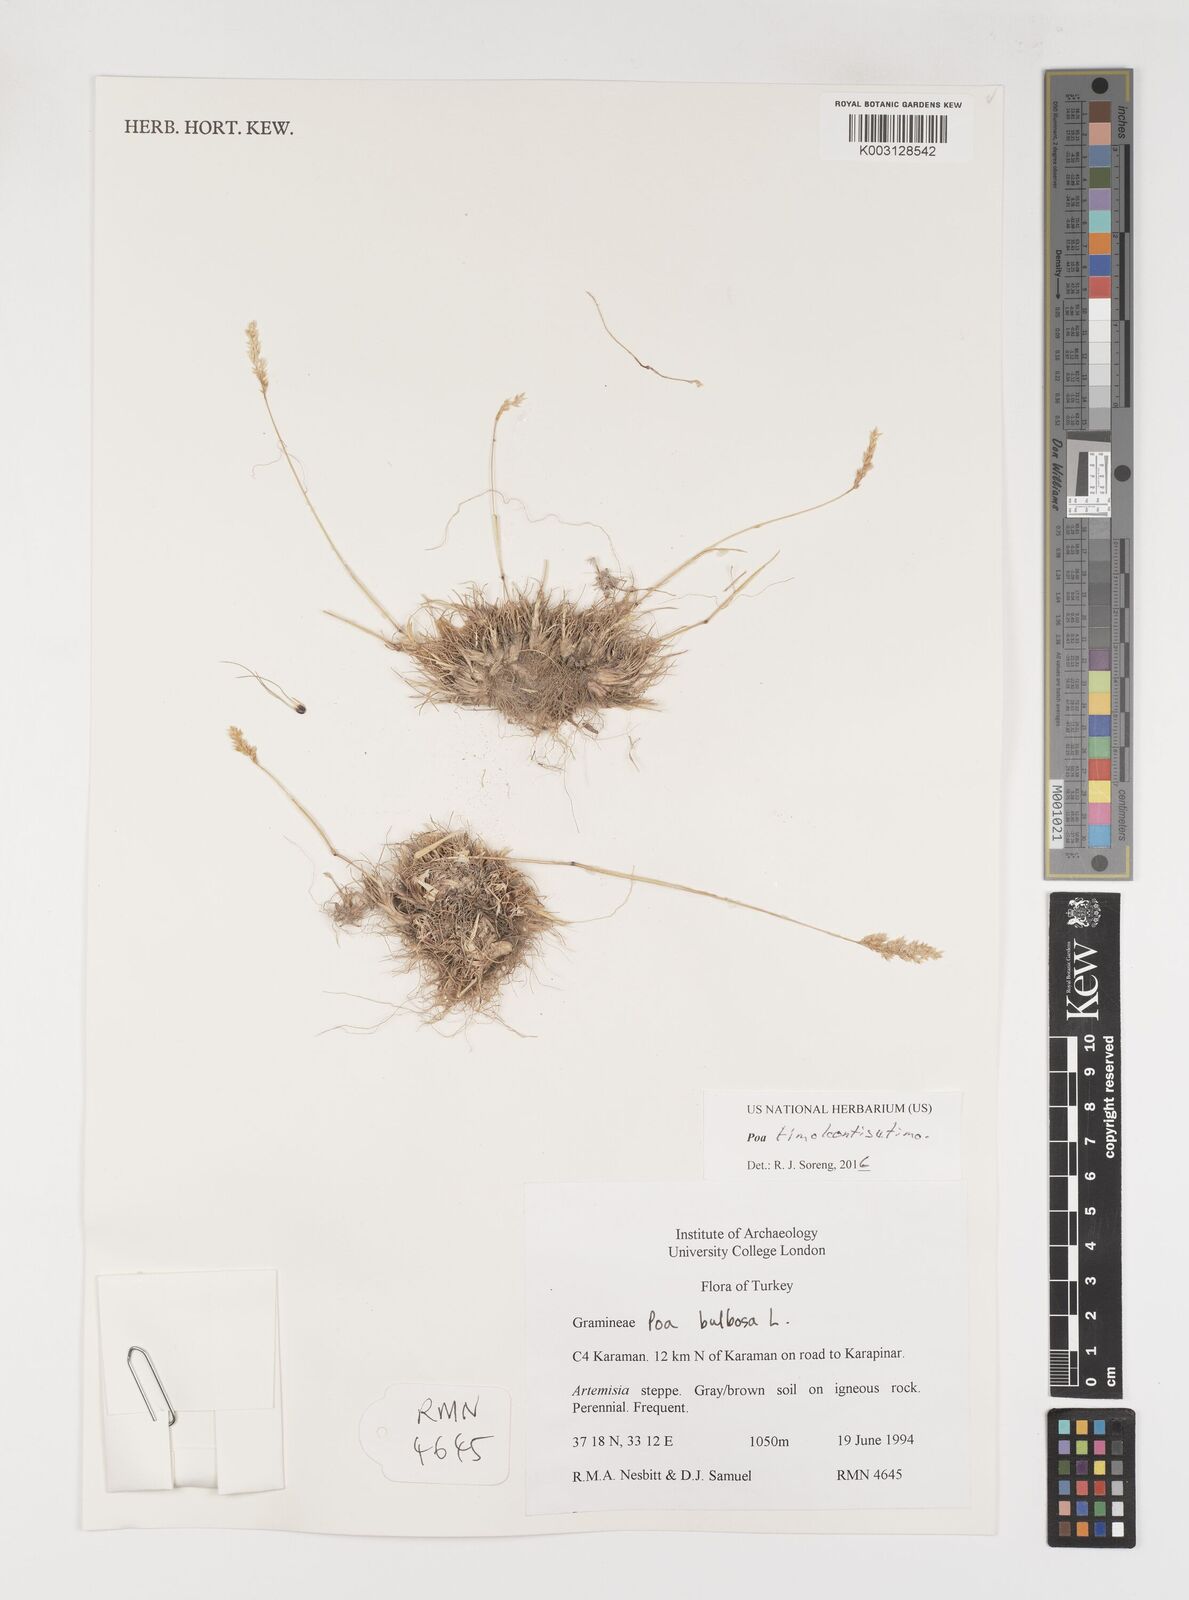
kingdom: Plantae
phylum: Tracheophyta
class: Liliopsida
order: Poales
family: Poaceae
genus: Poa
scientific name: Poa timoleontis
